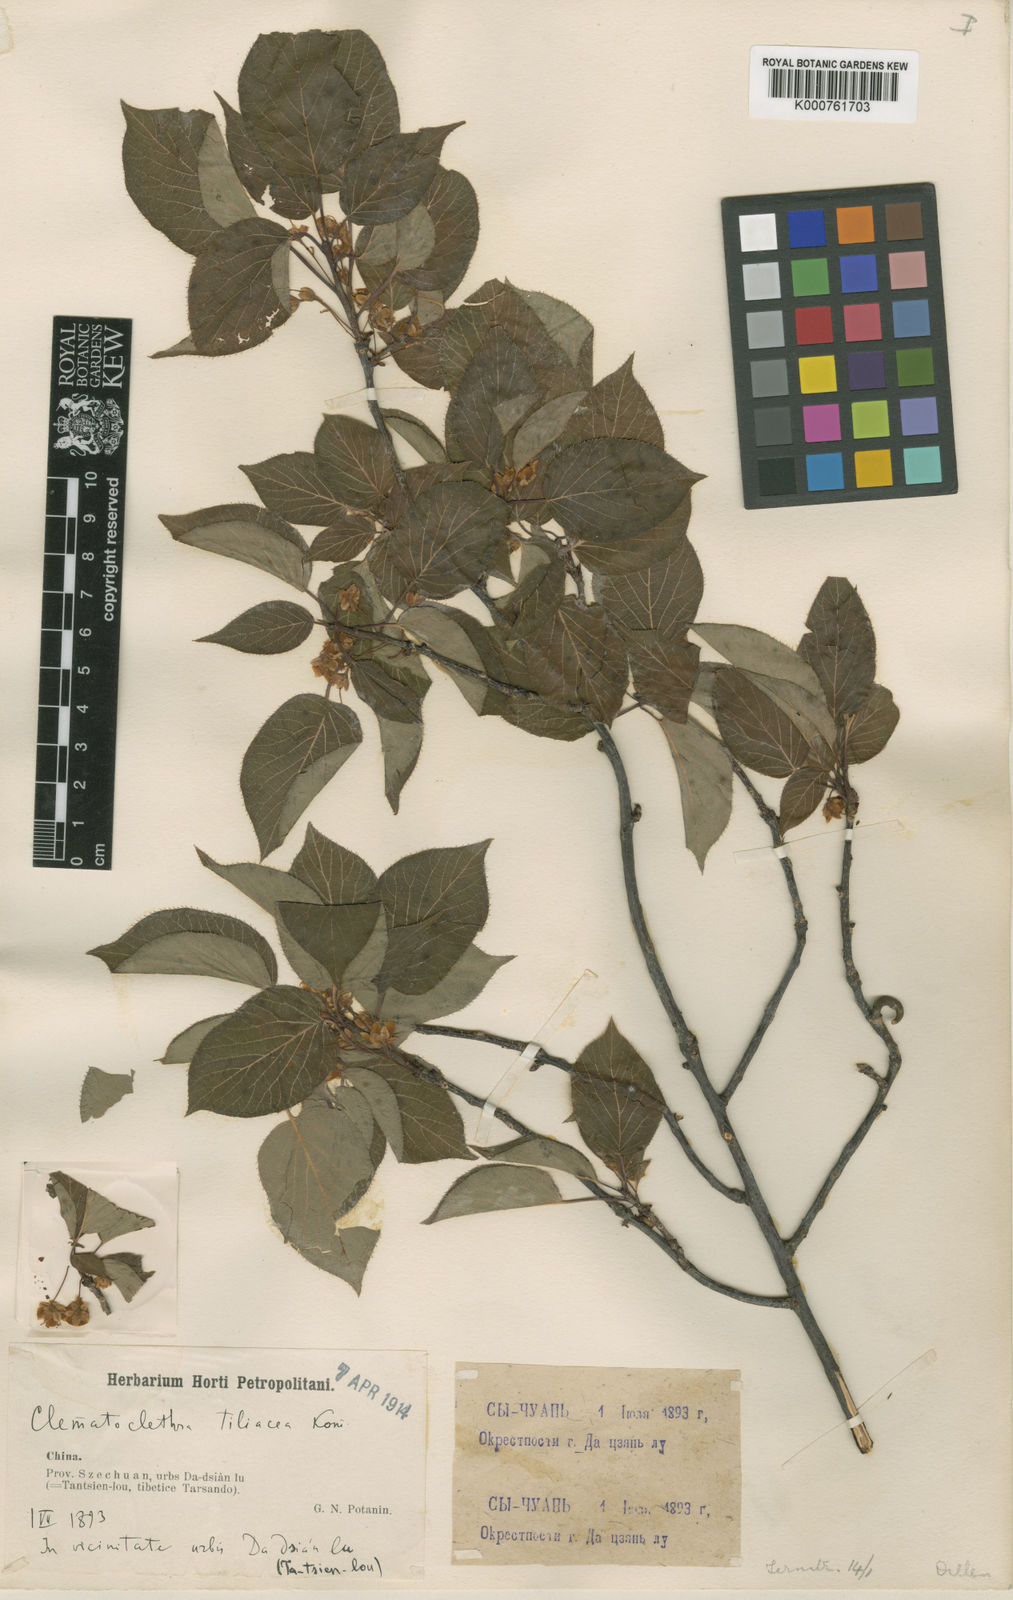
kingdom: Plantae
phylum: Tracheophyta
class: Magnoliopsida
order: Ericales
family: Actinidiaceae
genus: Clematoclethra
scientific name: Clematoclethra scandens
